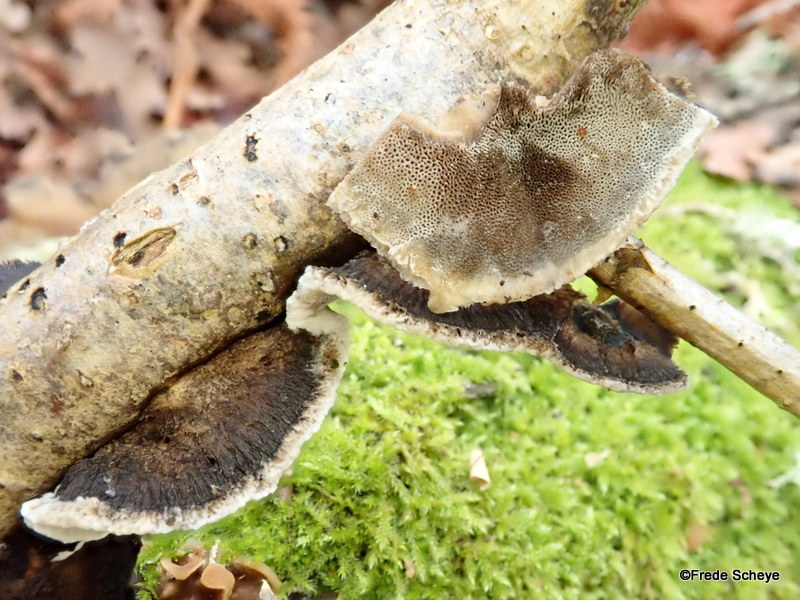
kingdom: Fungi
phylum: Basidiomycota
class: Agaricomycetes
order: Polyporales
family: Phanerochaetaceae
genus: Bjerkandera
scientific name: Bjerkandera adusta
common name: sveden sodporesvamp
